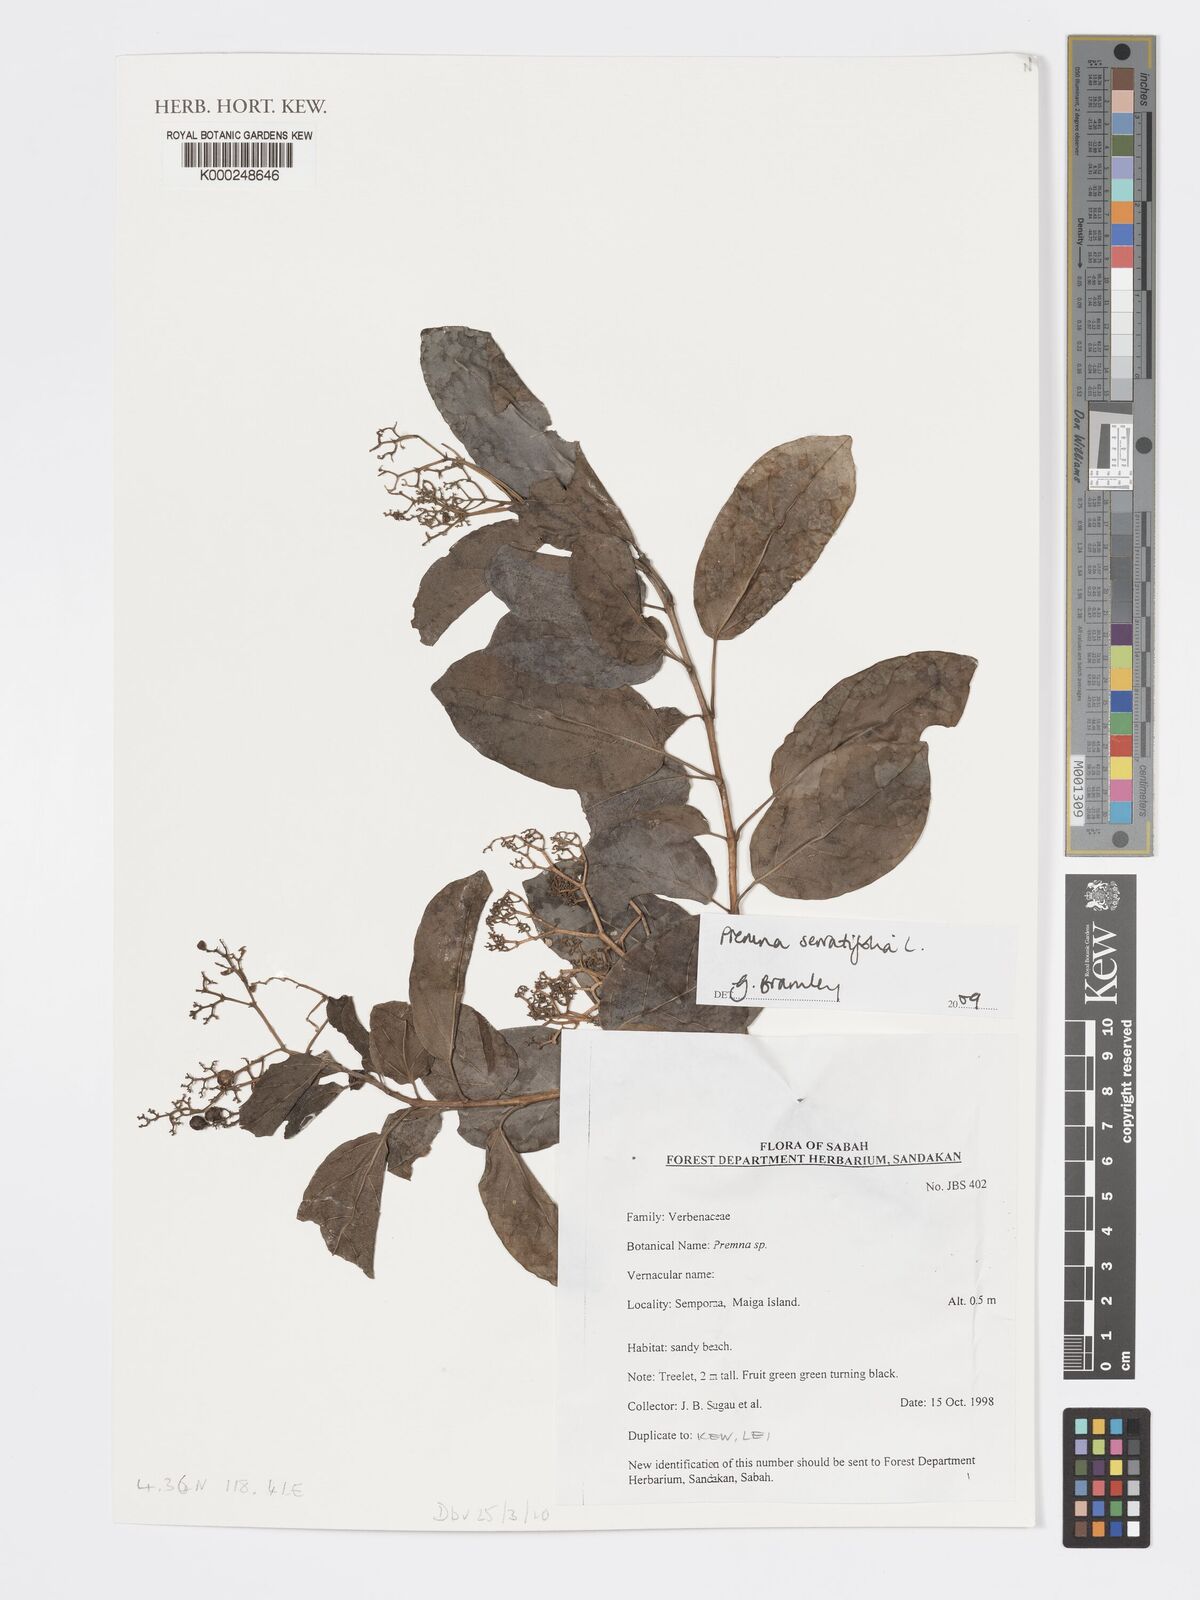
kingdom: Plantae
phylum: Tracheophyta
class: Magnoliopsida
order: Lamiales
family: Lamiaceae
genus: Premna
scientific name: Premna serratifolia
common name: Bastard guelder
